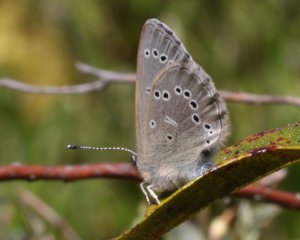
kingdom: Animalia
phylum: Arthropoda
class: Insecta
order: Lepidoptera
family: Lycaenidae
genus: Glaucopsyche
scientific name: Glaucopsyche lygdamus
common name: Silvery Blue
